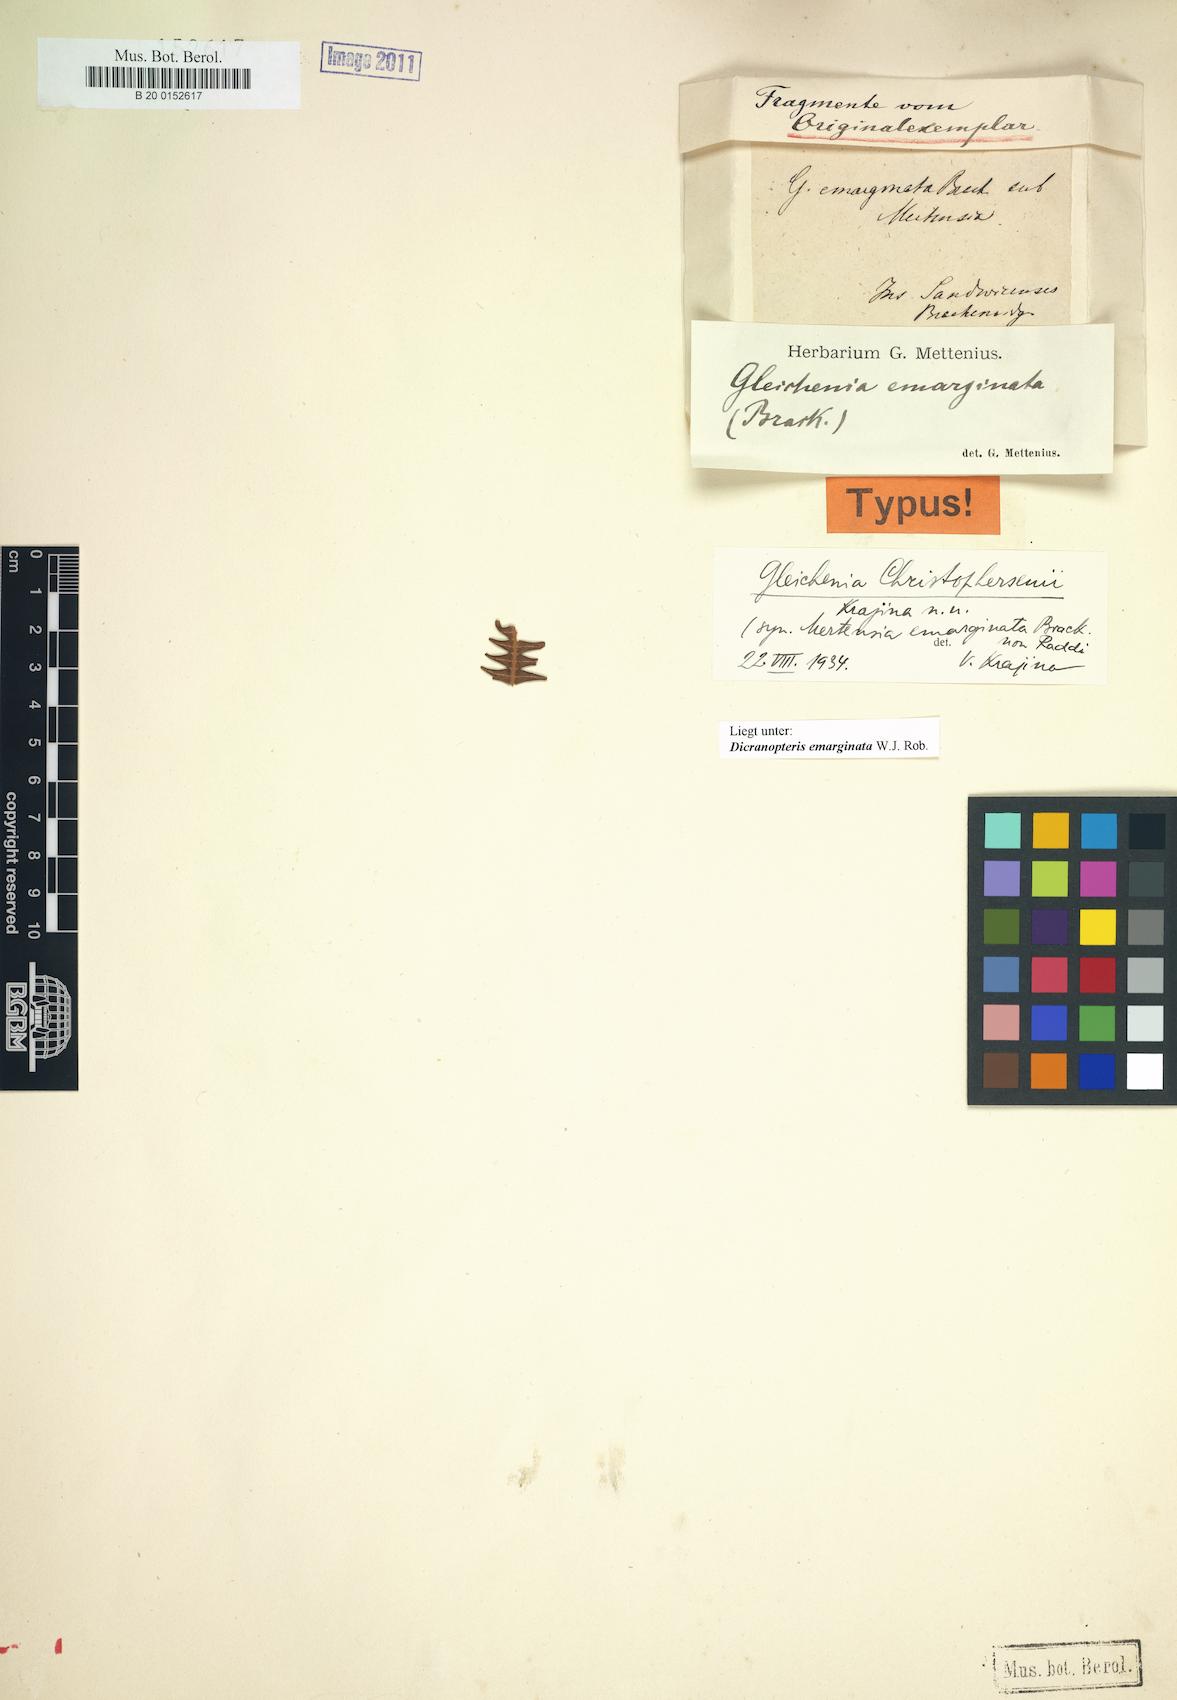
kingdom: Plantae
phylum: Tracheophyta
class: Polypodiopsida
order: Gleicheniales
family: Gleicheniaceae
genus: Dicranopteris
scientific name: Dicranopteris linearis
